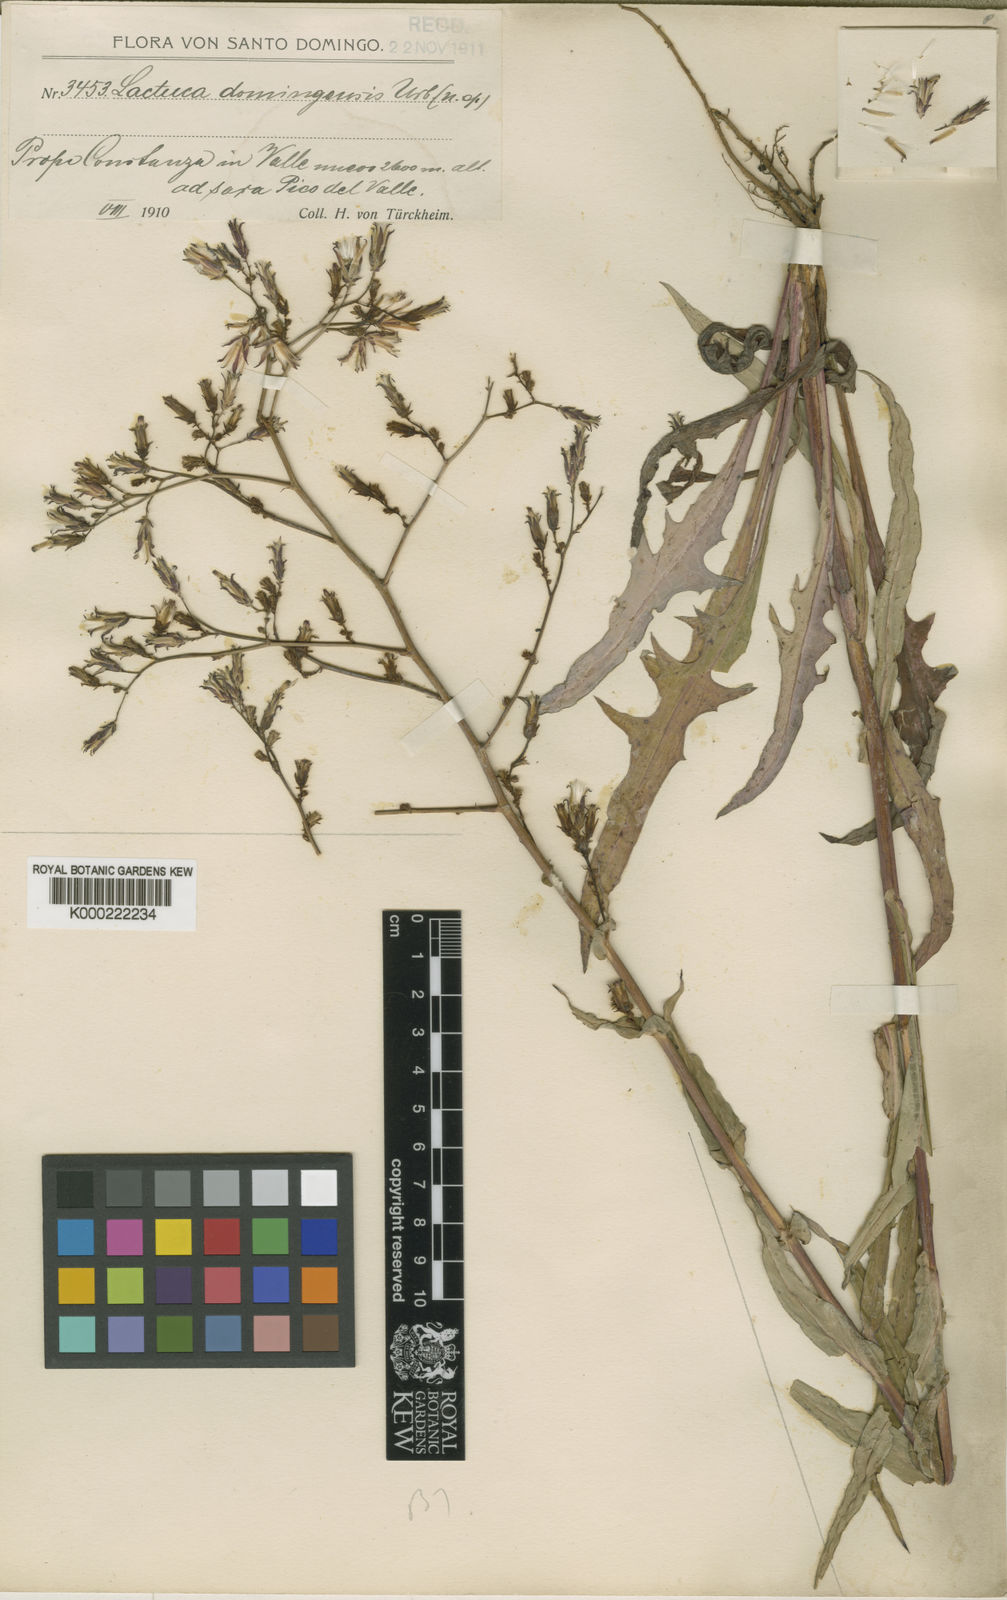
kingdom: Plantae
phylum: Tracheophyta
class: Magnoliopsida
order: Asterales
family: Asteraceae
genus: Lactuca
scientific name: Lactuca
